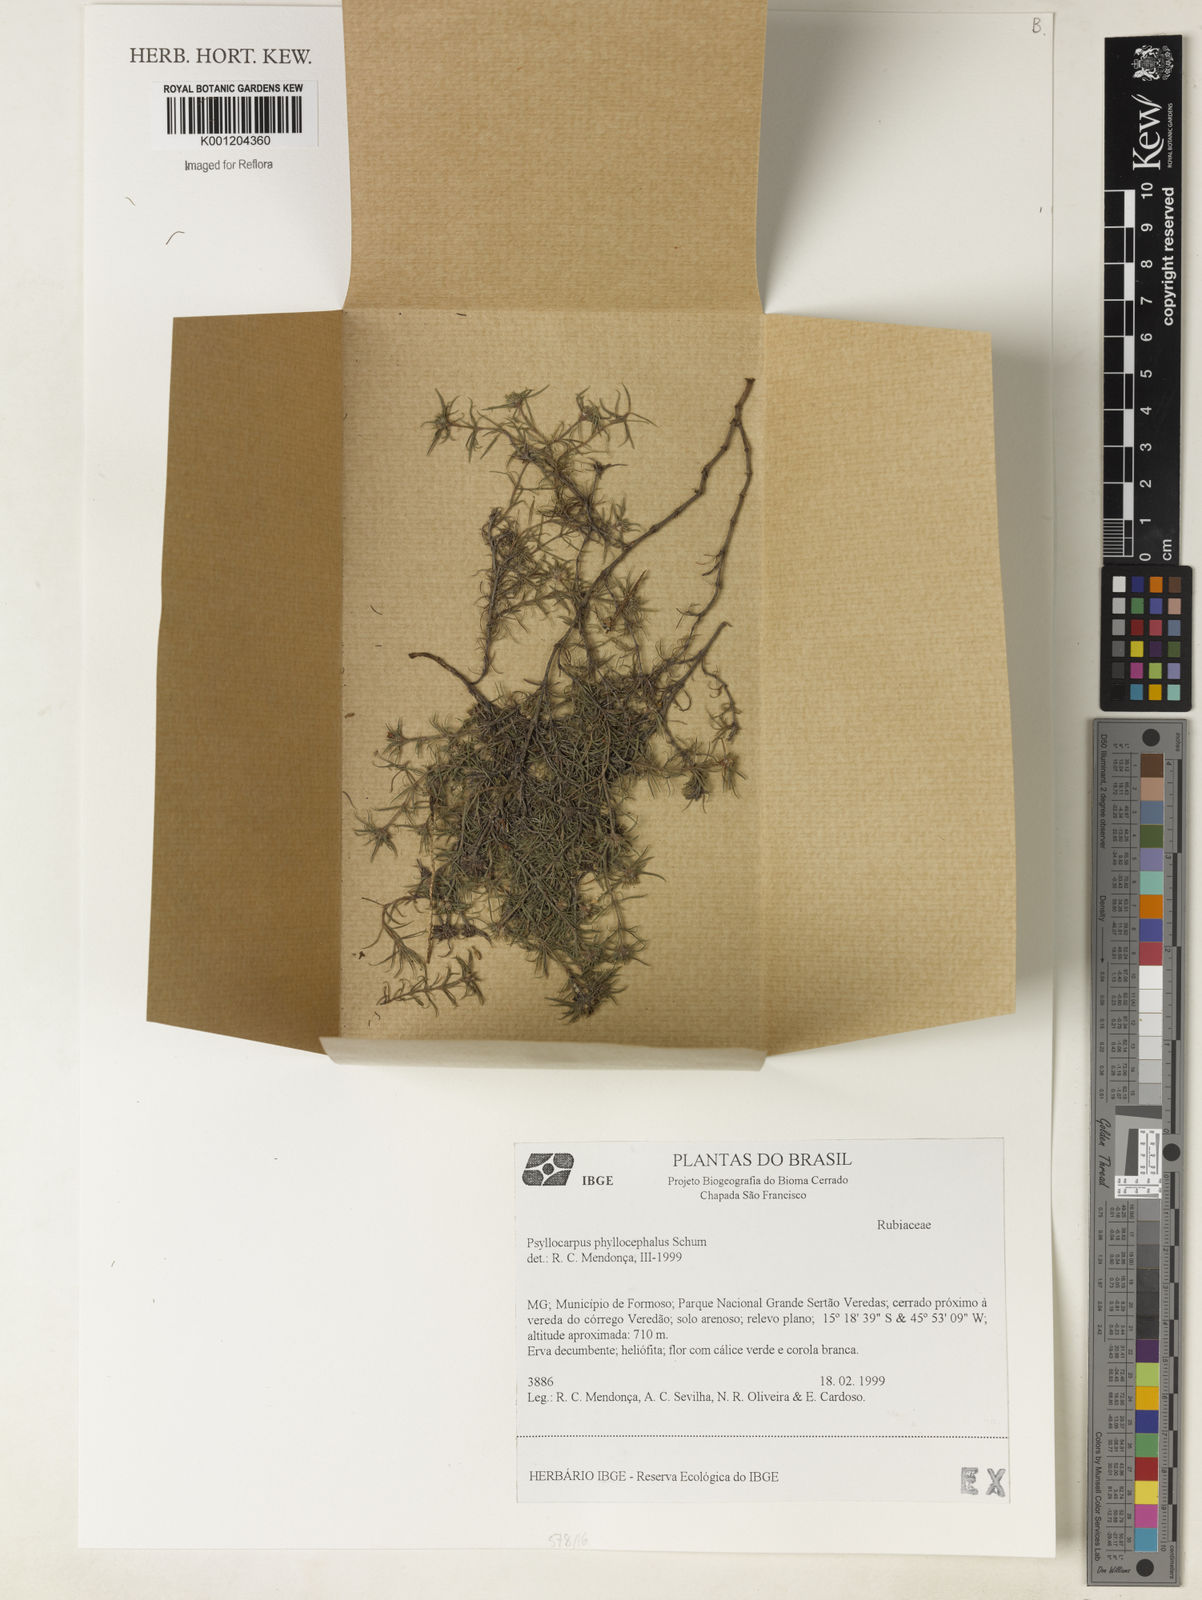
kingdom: Plantae
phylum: Tracheophyta
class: Magnoliopsida
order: Gentianales
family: Rubiaceae
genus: Psyllocarpus
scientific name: Psyllocarpus phyllocephalus
